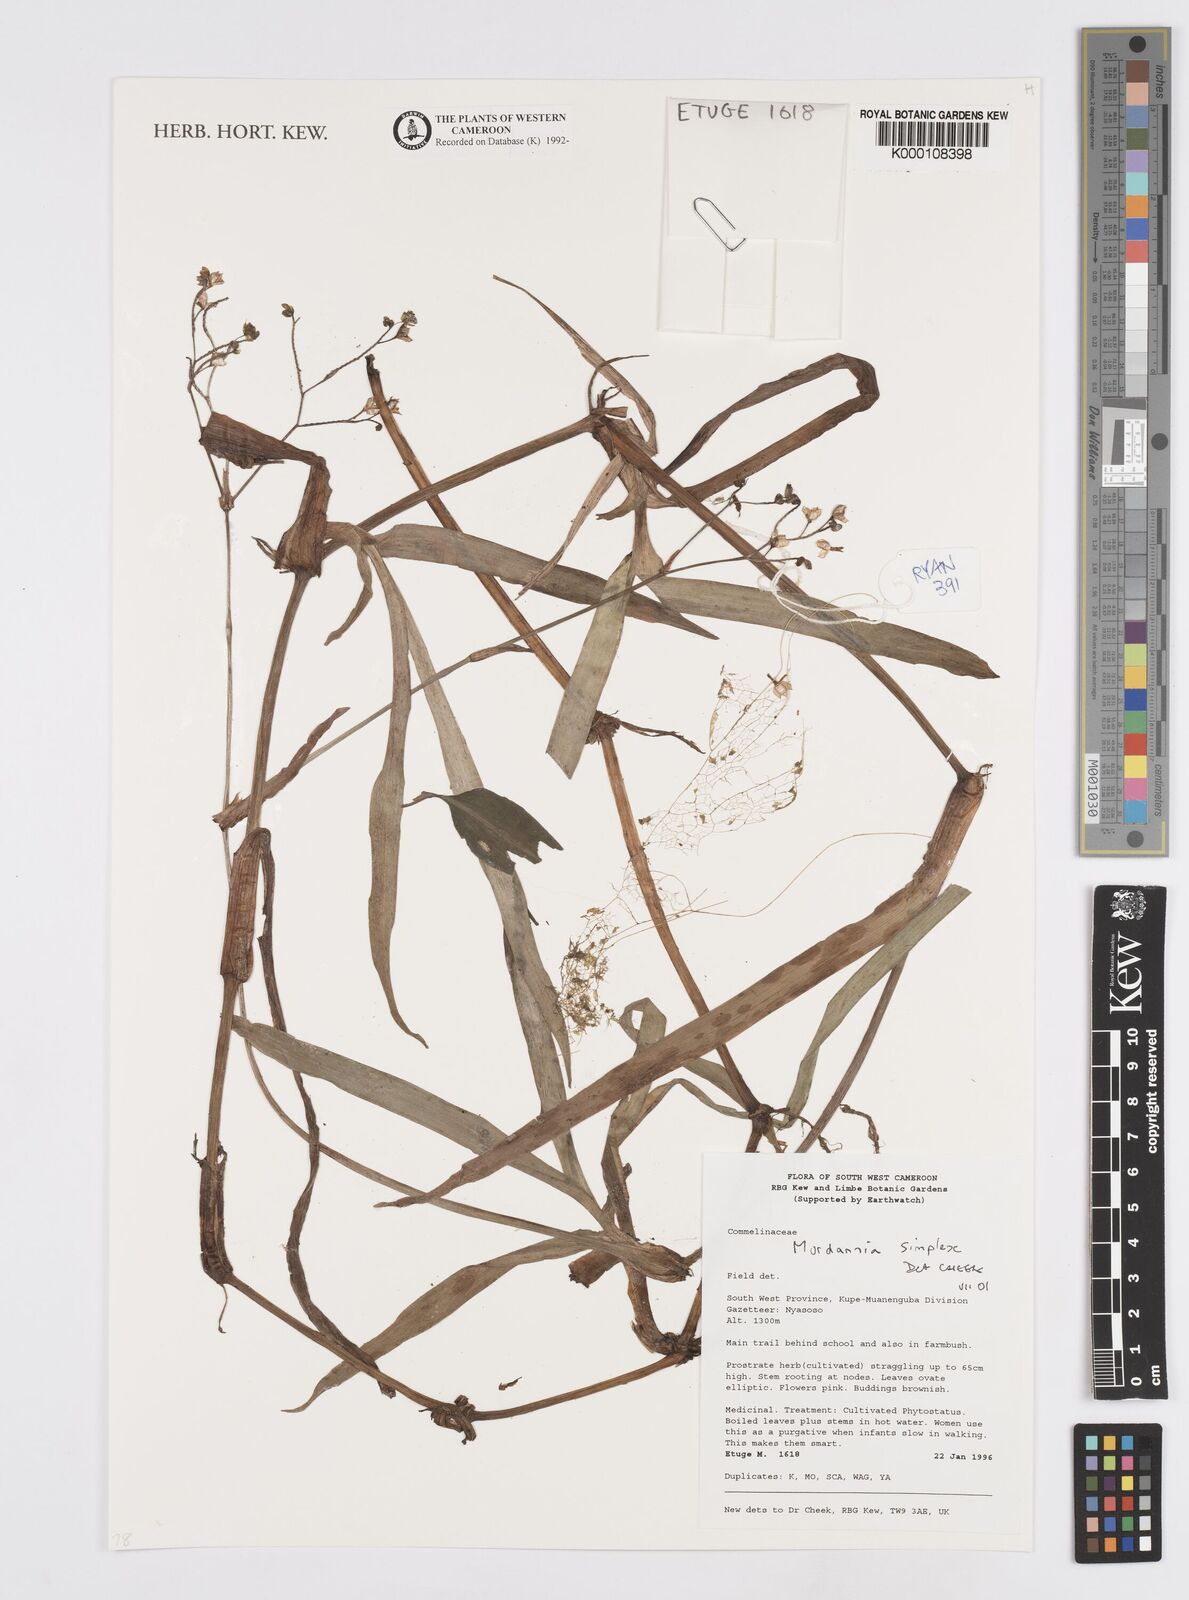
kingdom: Plantae
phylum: Tracheophyta
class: Liliopsida
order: Commelinales
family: Commelinaceae
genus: Murdannia
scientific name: Murdannia simplex
